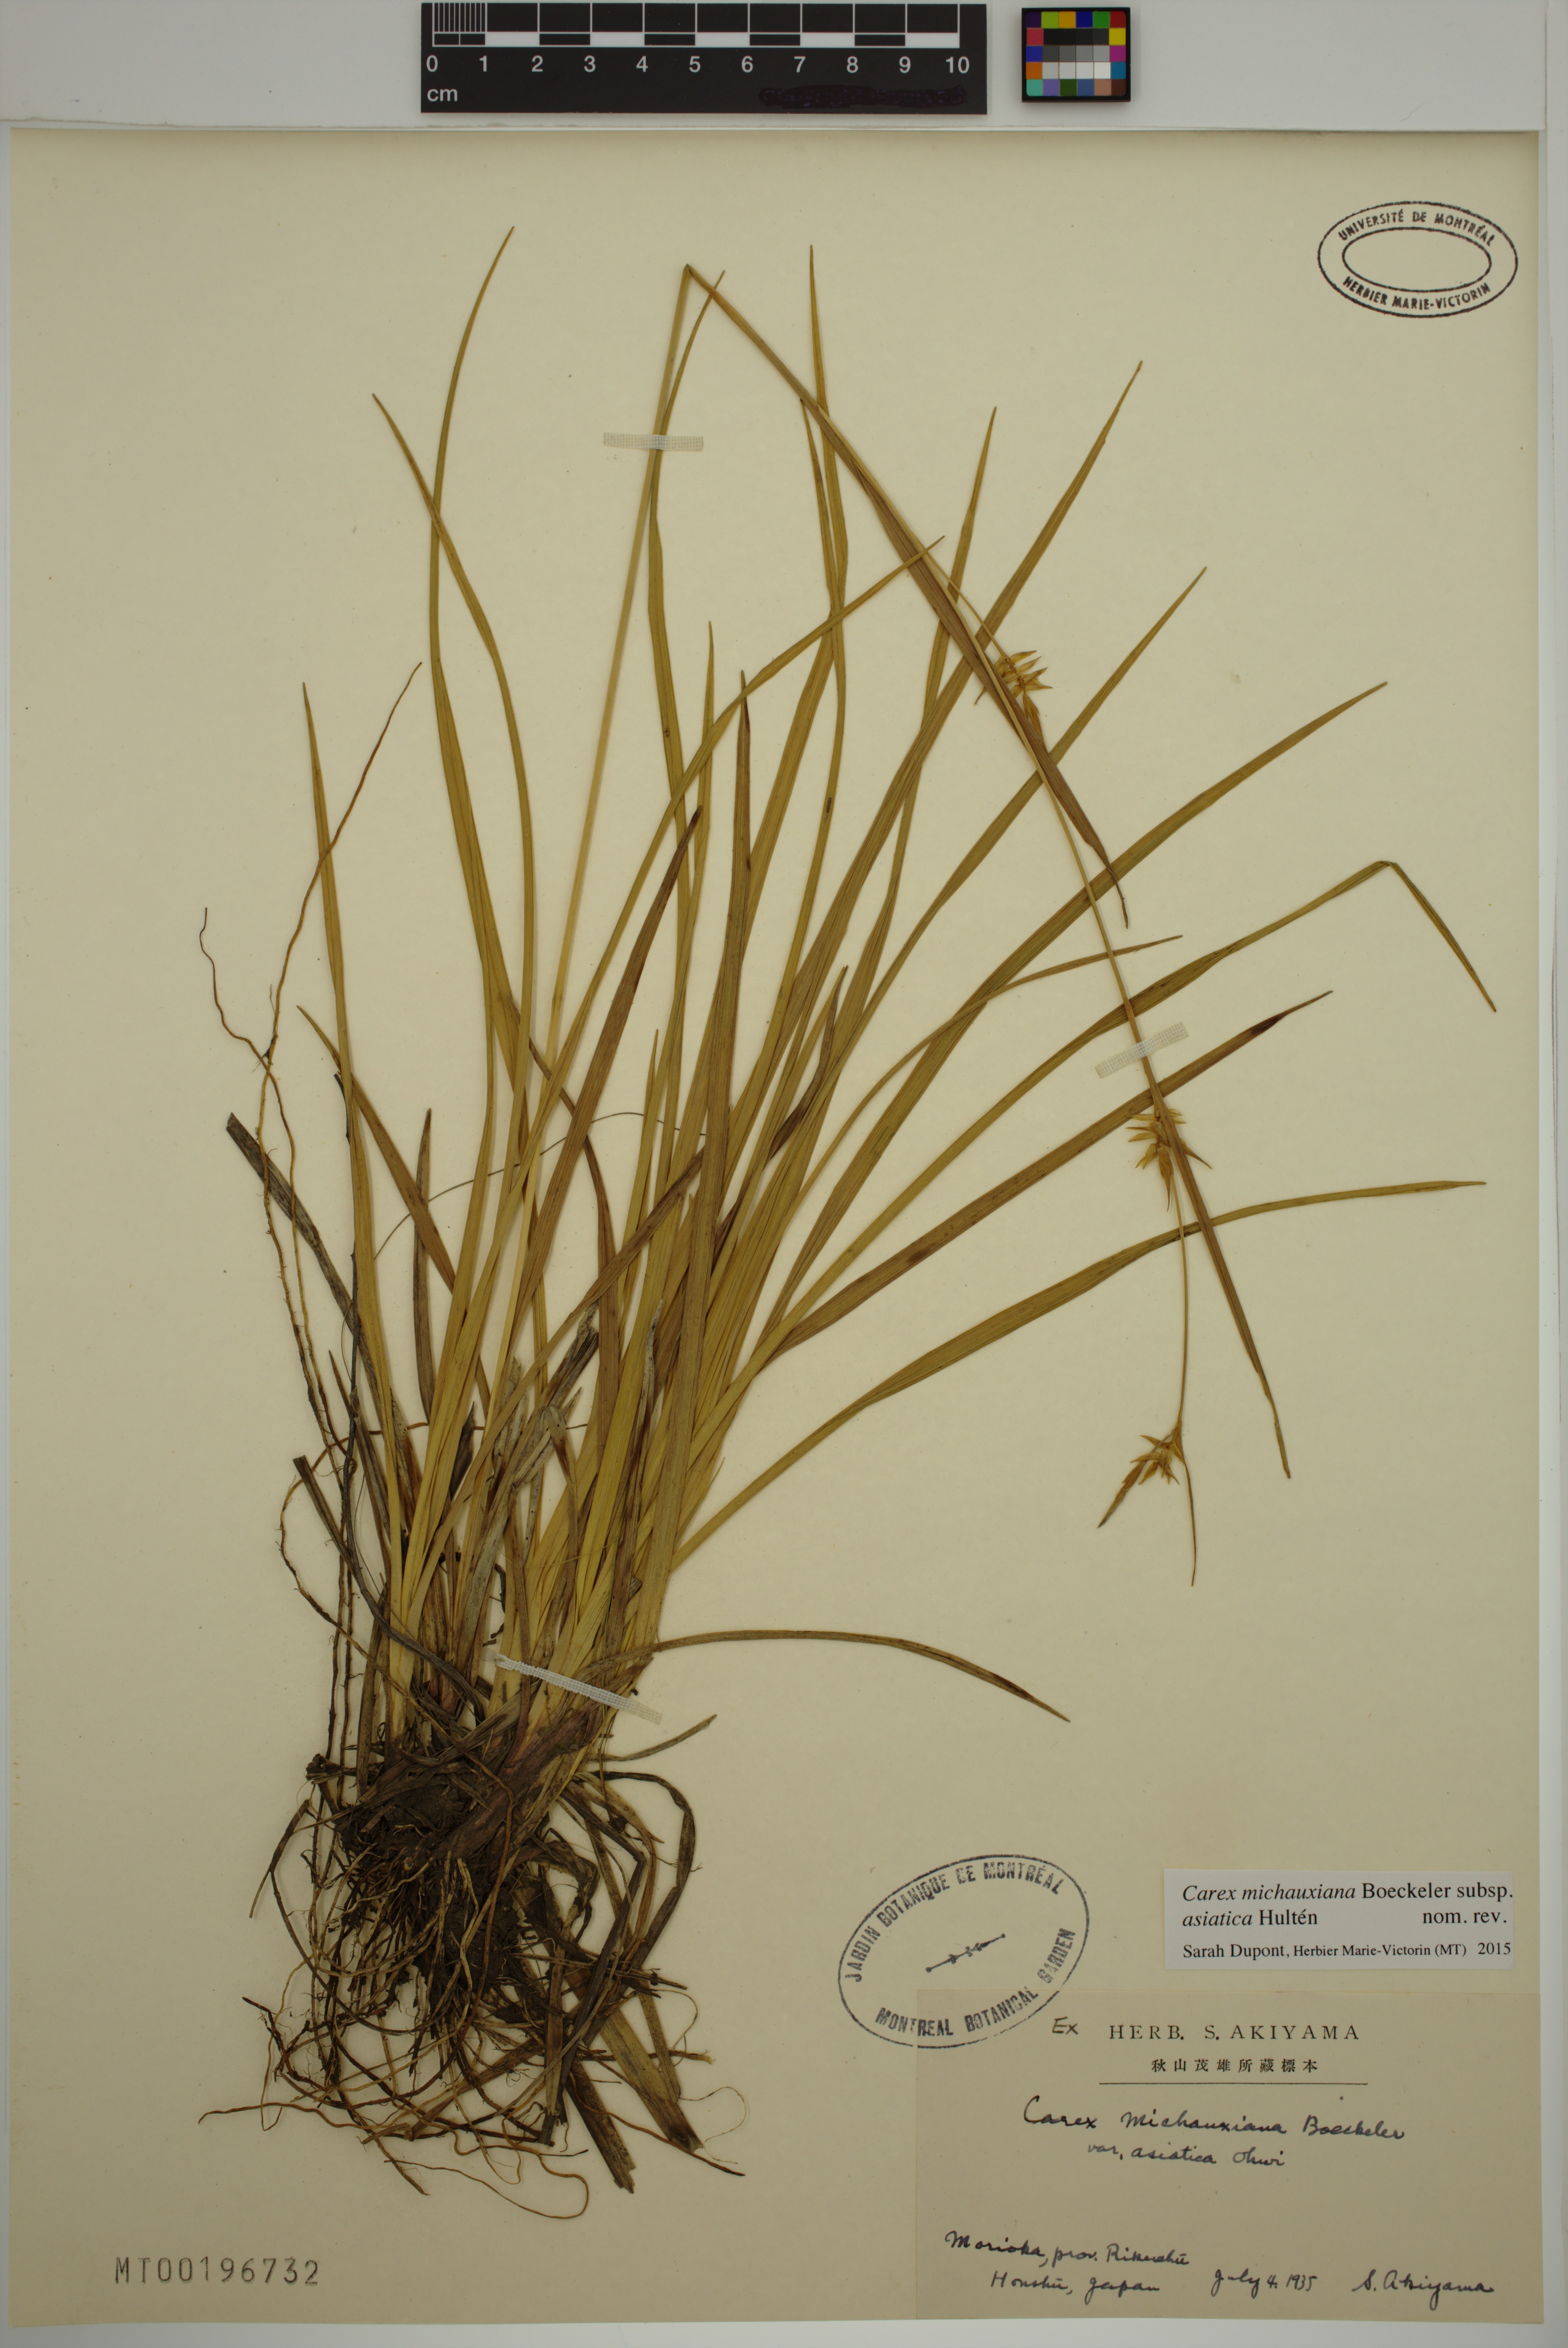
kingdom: Plantae
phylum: Tracheophyta
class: Liliopsida
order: Poales
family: Cyperaceae
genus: Carex
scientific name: Carex michauxiana
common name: Michaux's sedge
